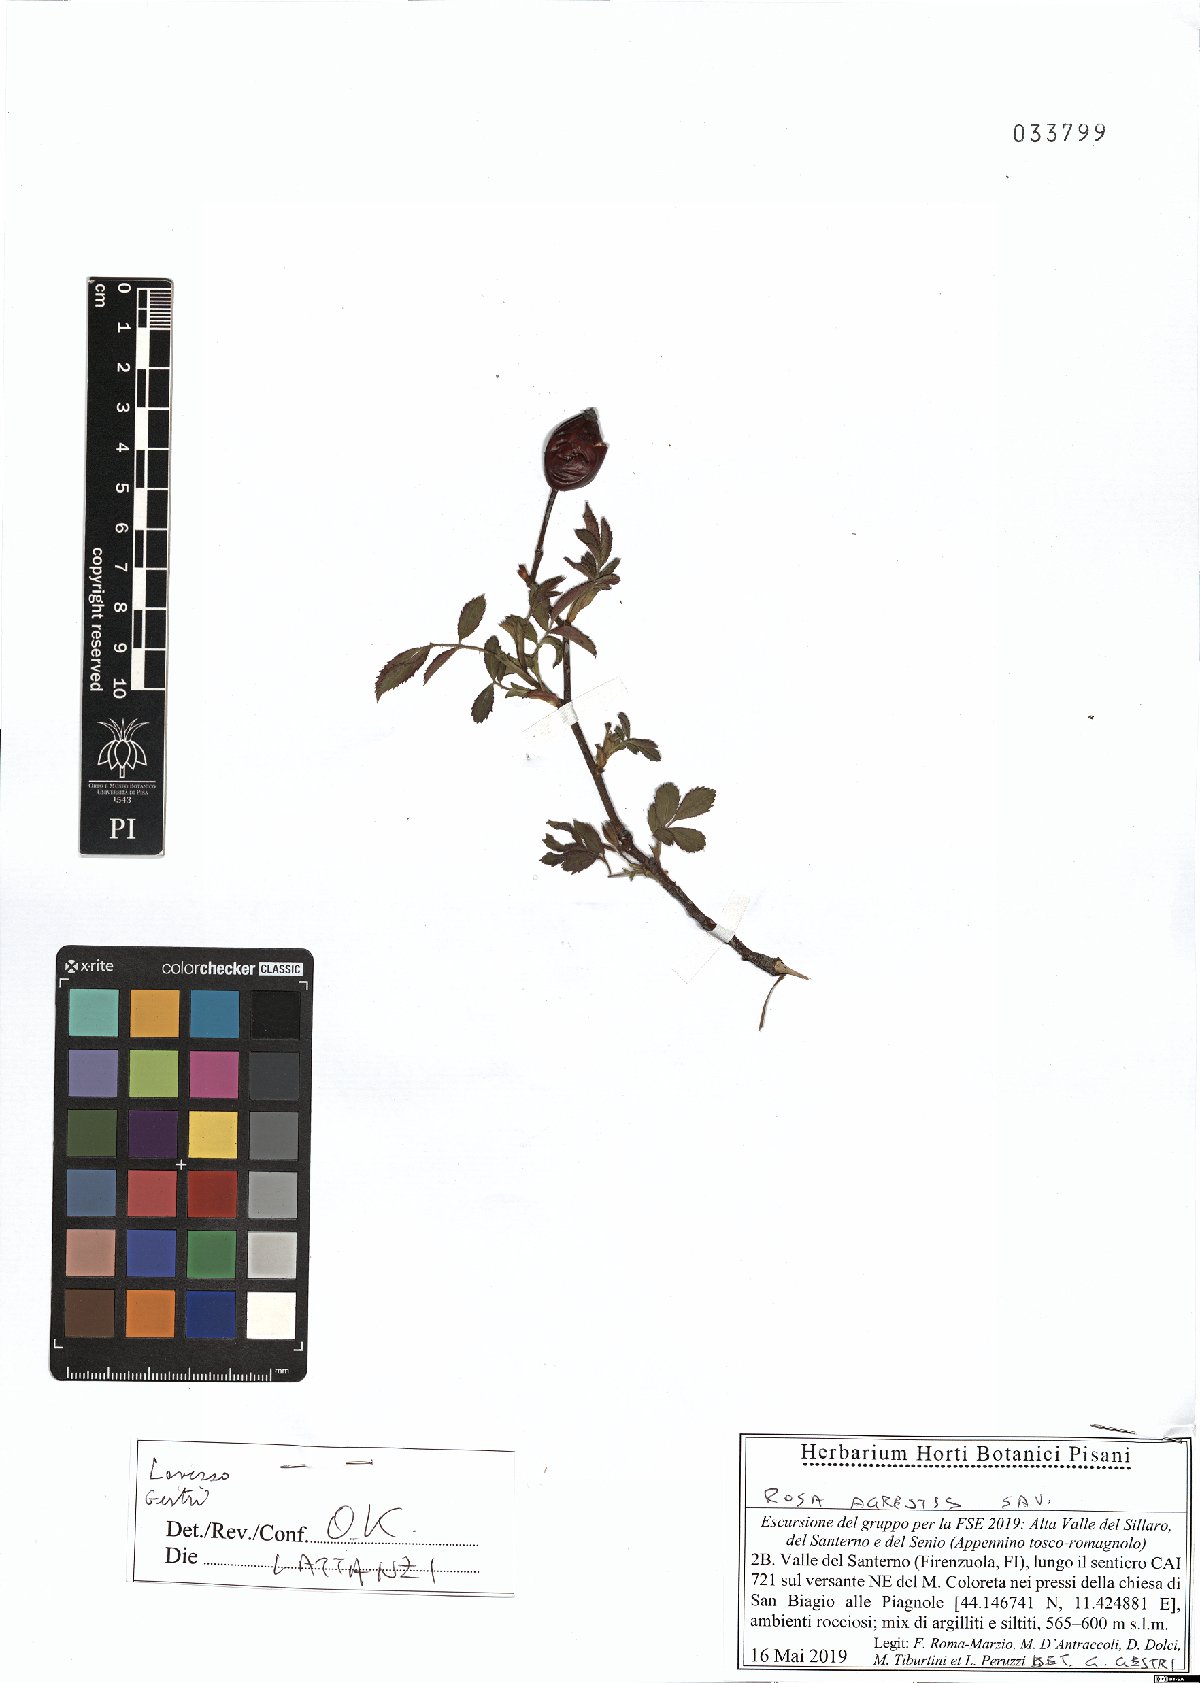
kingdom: Plantae
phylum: Tracheophyta
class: Magnoliopsida
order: Rosales
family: Rosaceae
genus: Rosa
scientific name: Rosa agrestis
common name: Fieldbriar
